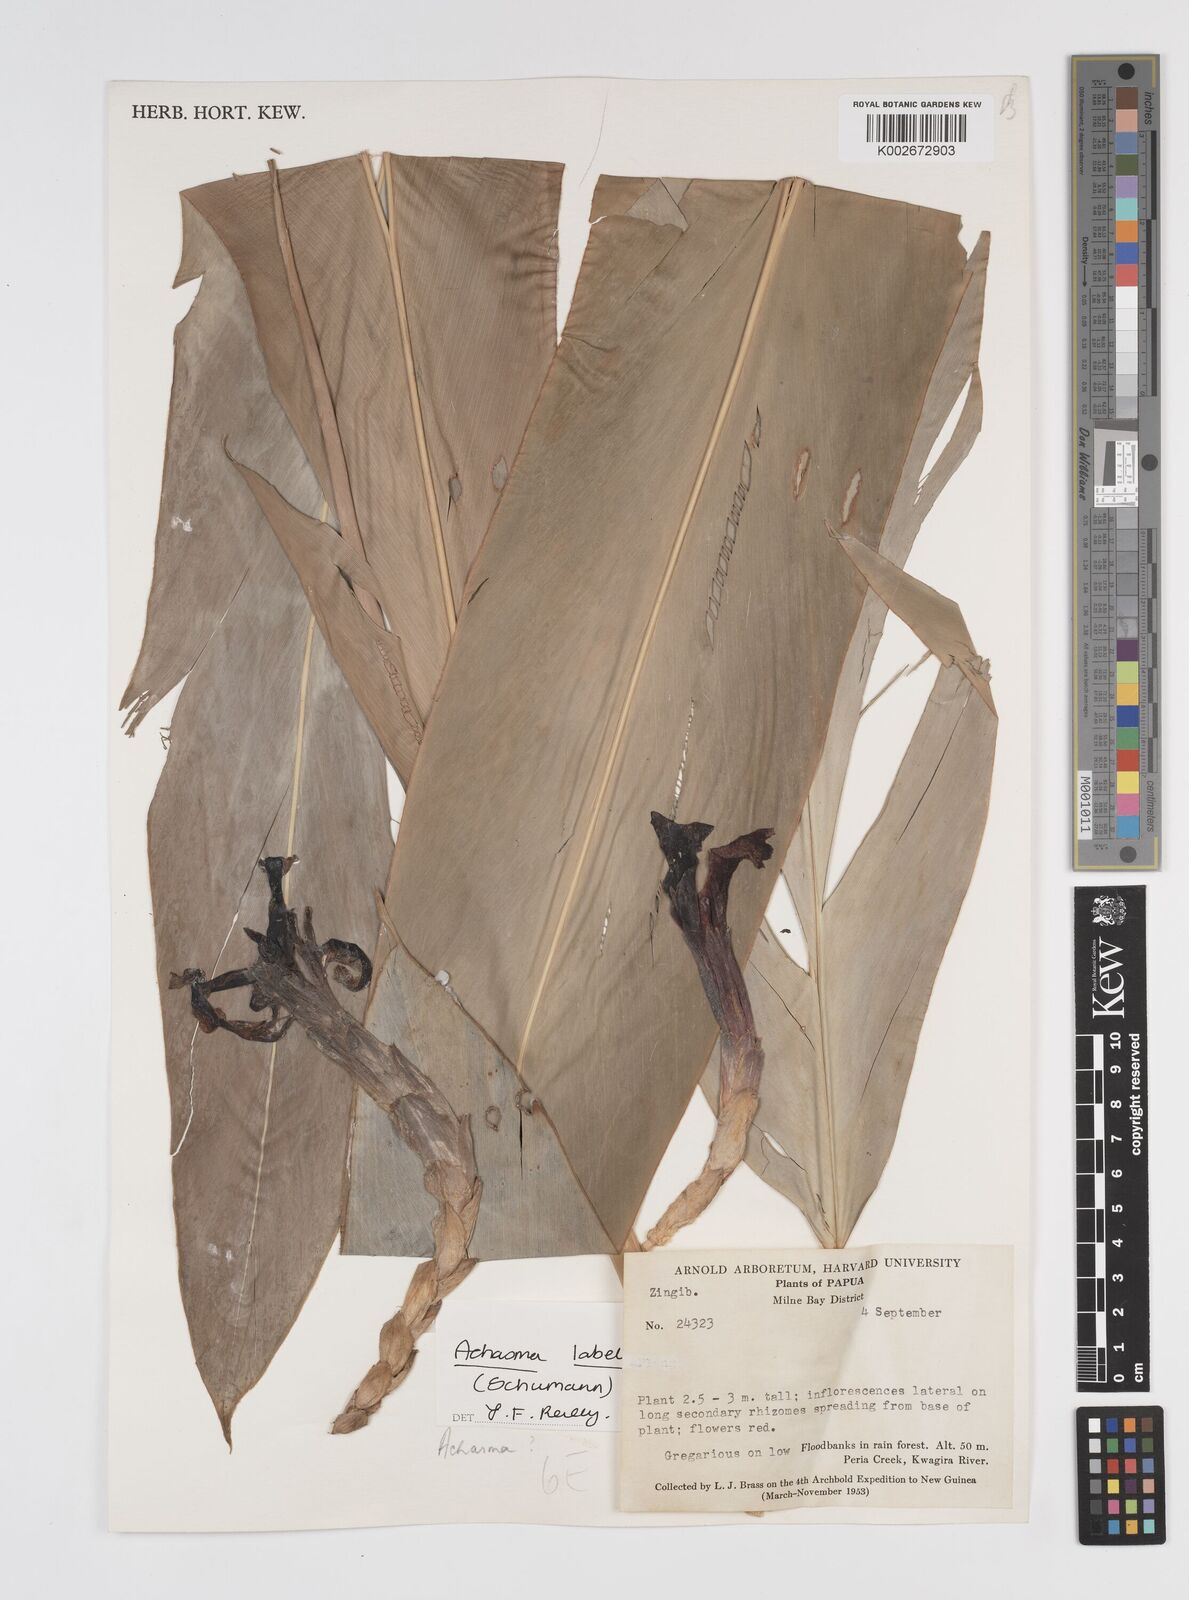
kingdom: Plantae
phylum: Tracheophyta
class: Liliopsida
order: Zingiberales
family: Zingiberaceae
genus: Etlingera
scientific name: Etlingera labellosa
